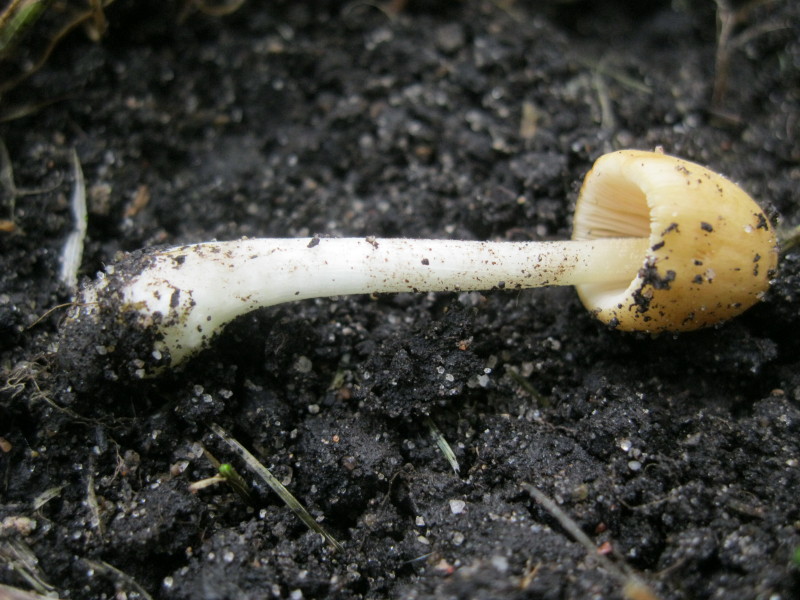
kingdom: Fungi
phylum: Basidiomycota
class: Agaricomycetes
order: Agaricales
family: Bolbitiaceae
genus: Conocybe
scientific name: Conocybe apala
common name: mælkehvid keglehat
